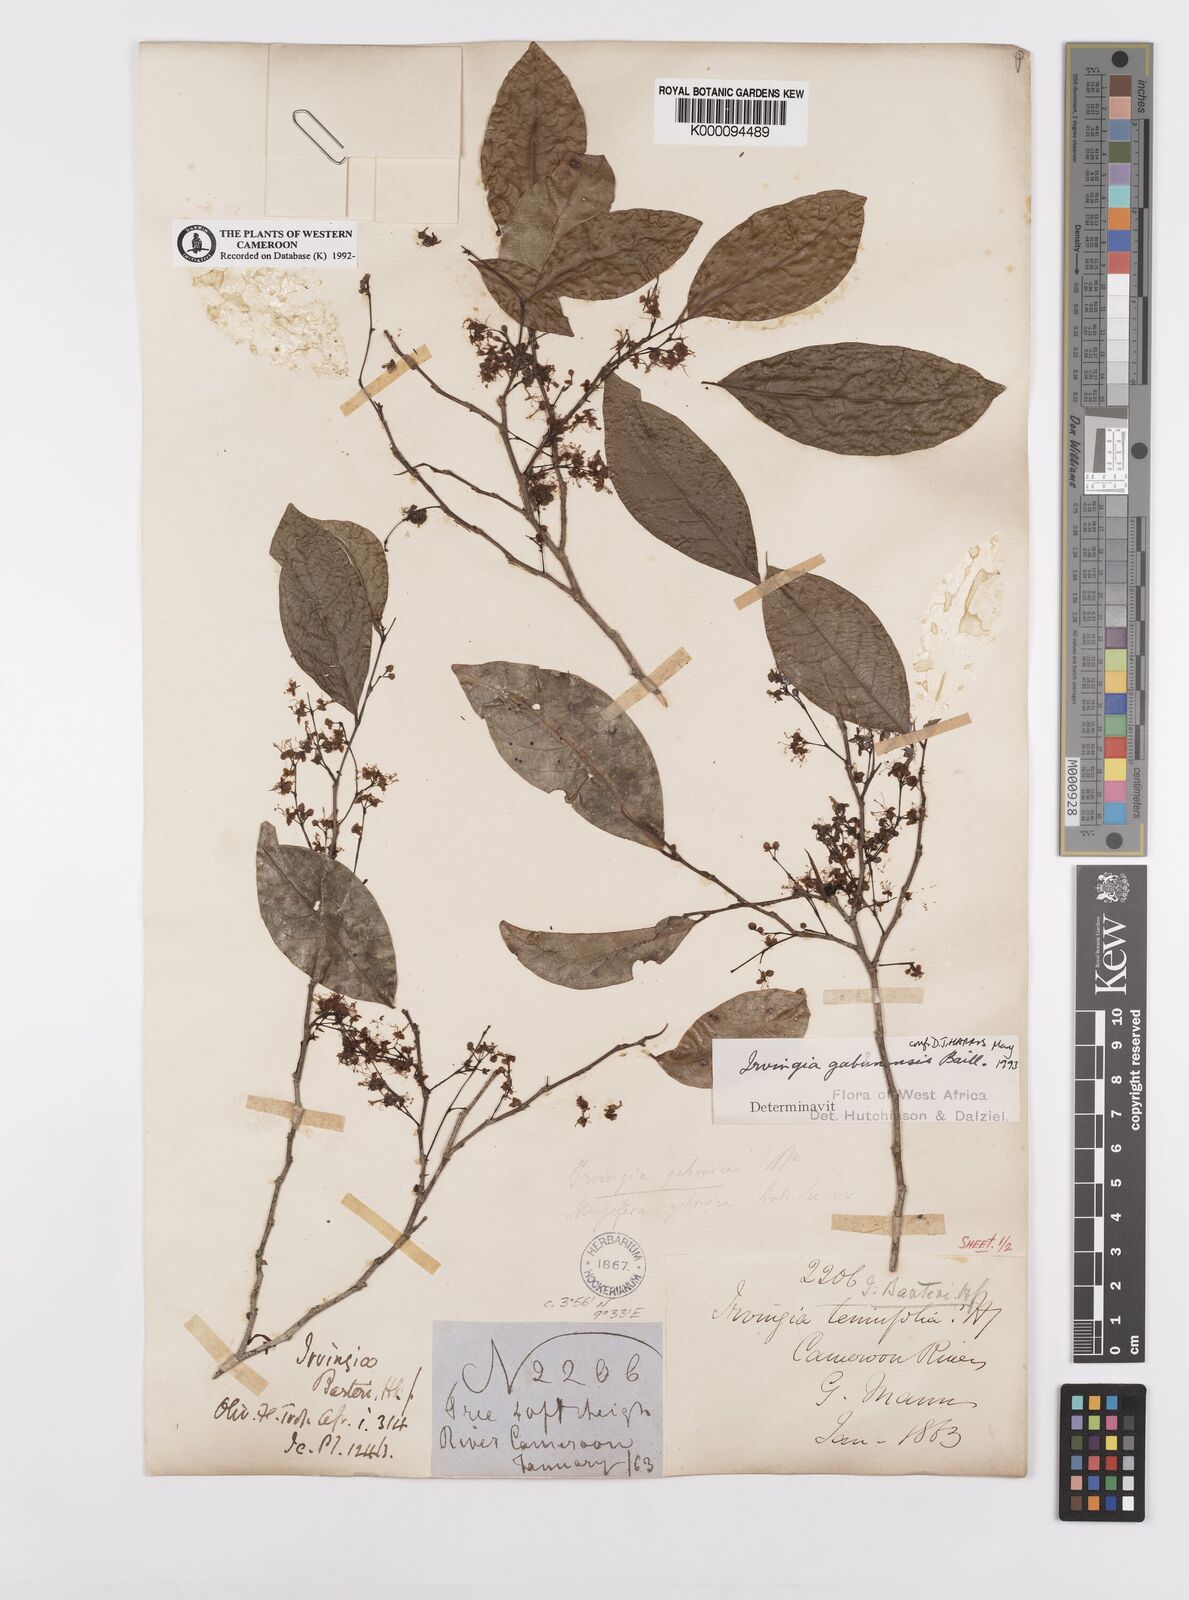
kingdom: Plantae
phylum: Tracheophyta
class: Magnoliopsida
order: Malpighiales
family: Irvingiaceae
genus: Irvingia
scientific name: Irvingia gabonensis
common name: Rainy season bush-mango
